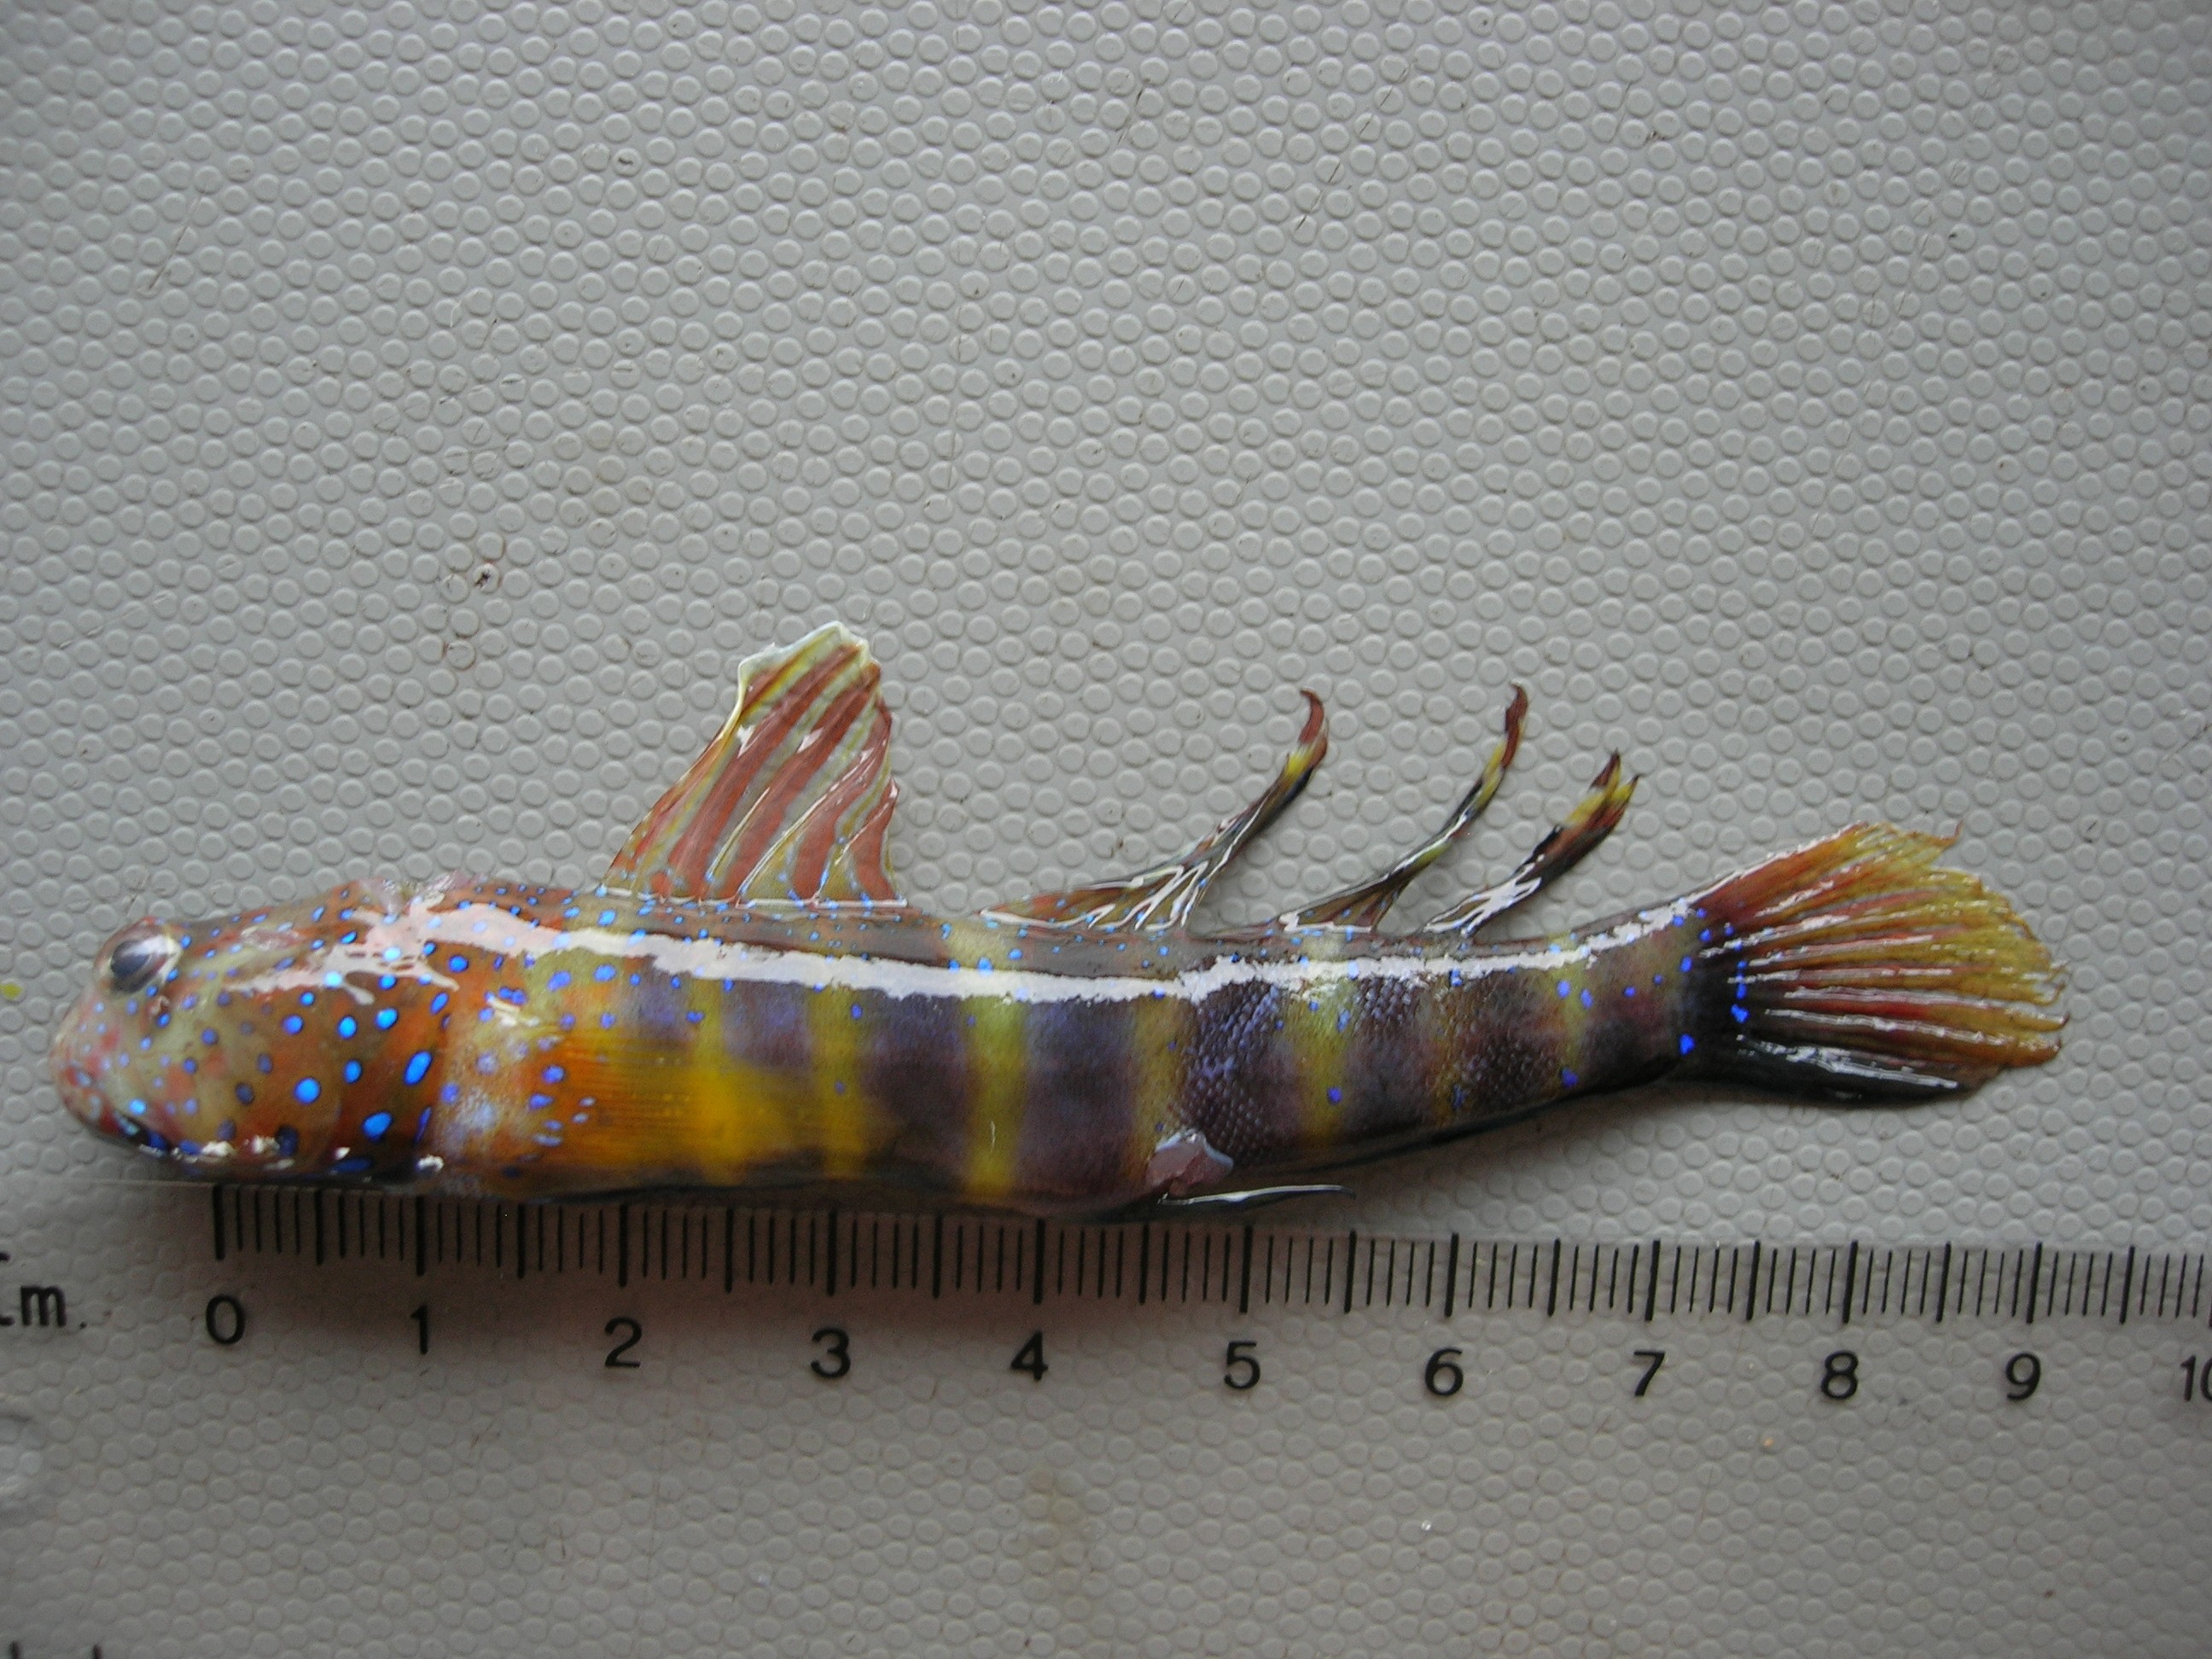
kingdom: Animalia
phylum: Chordata
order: Perciformes
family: Gobiidae
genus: Cryptocentrus
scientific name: Cryptocentrus cryptocentrus
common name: Ninebar prawn-goby
